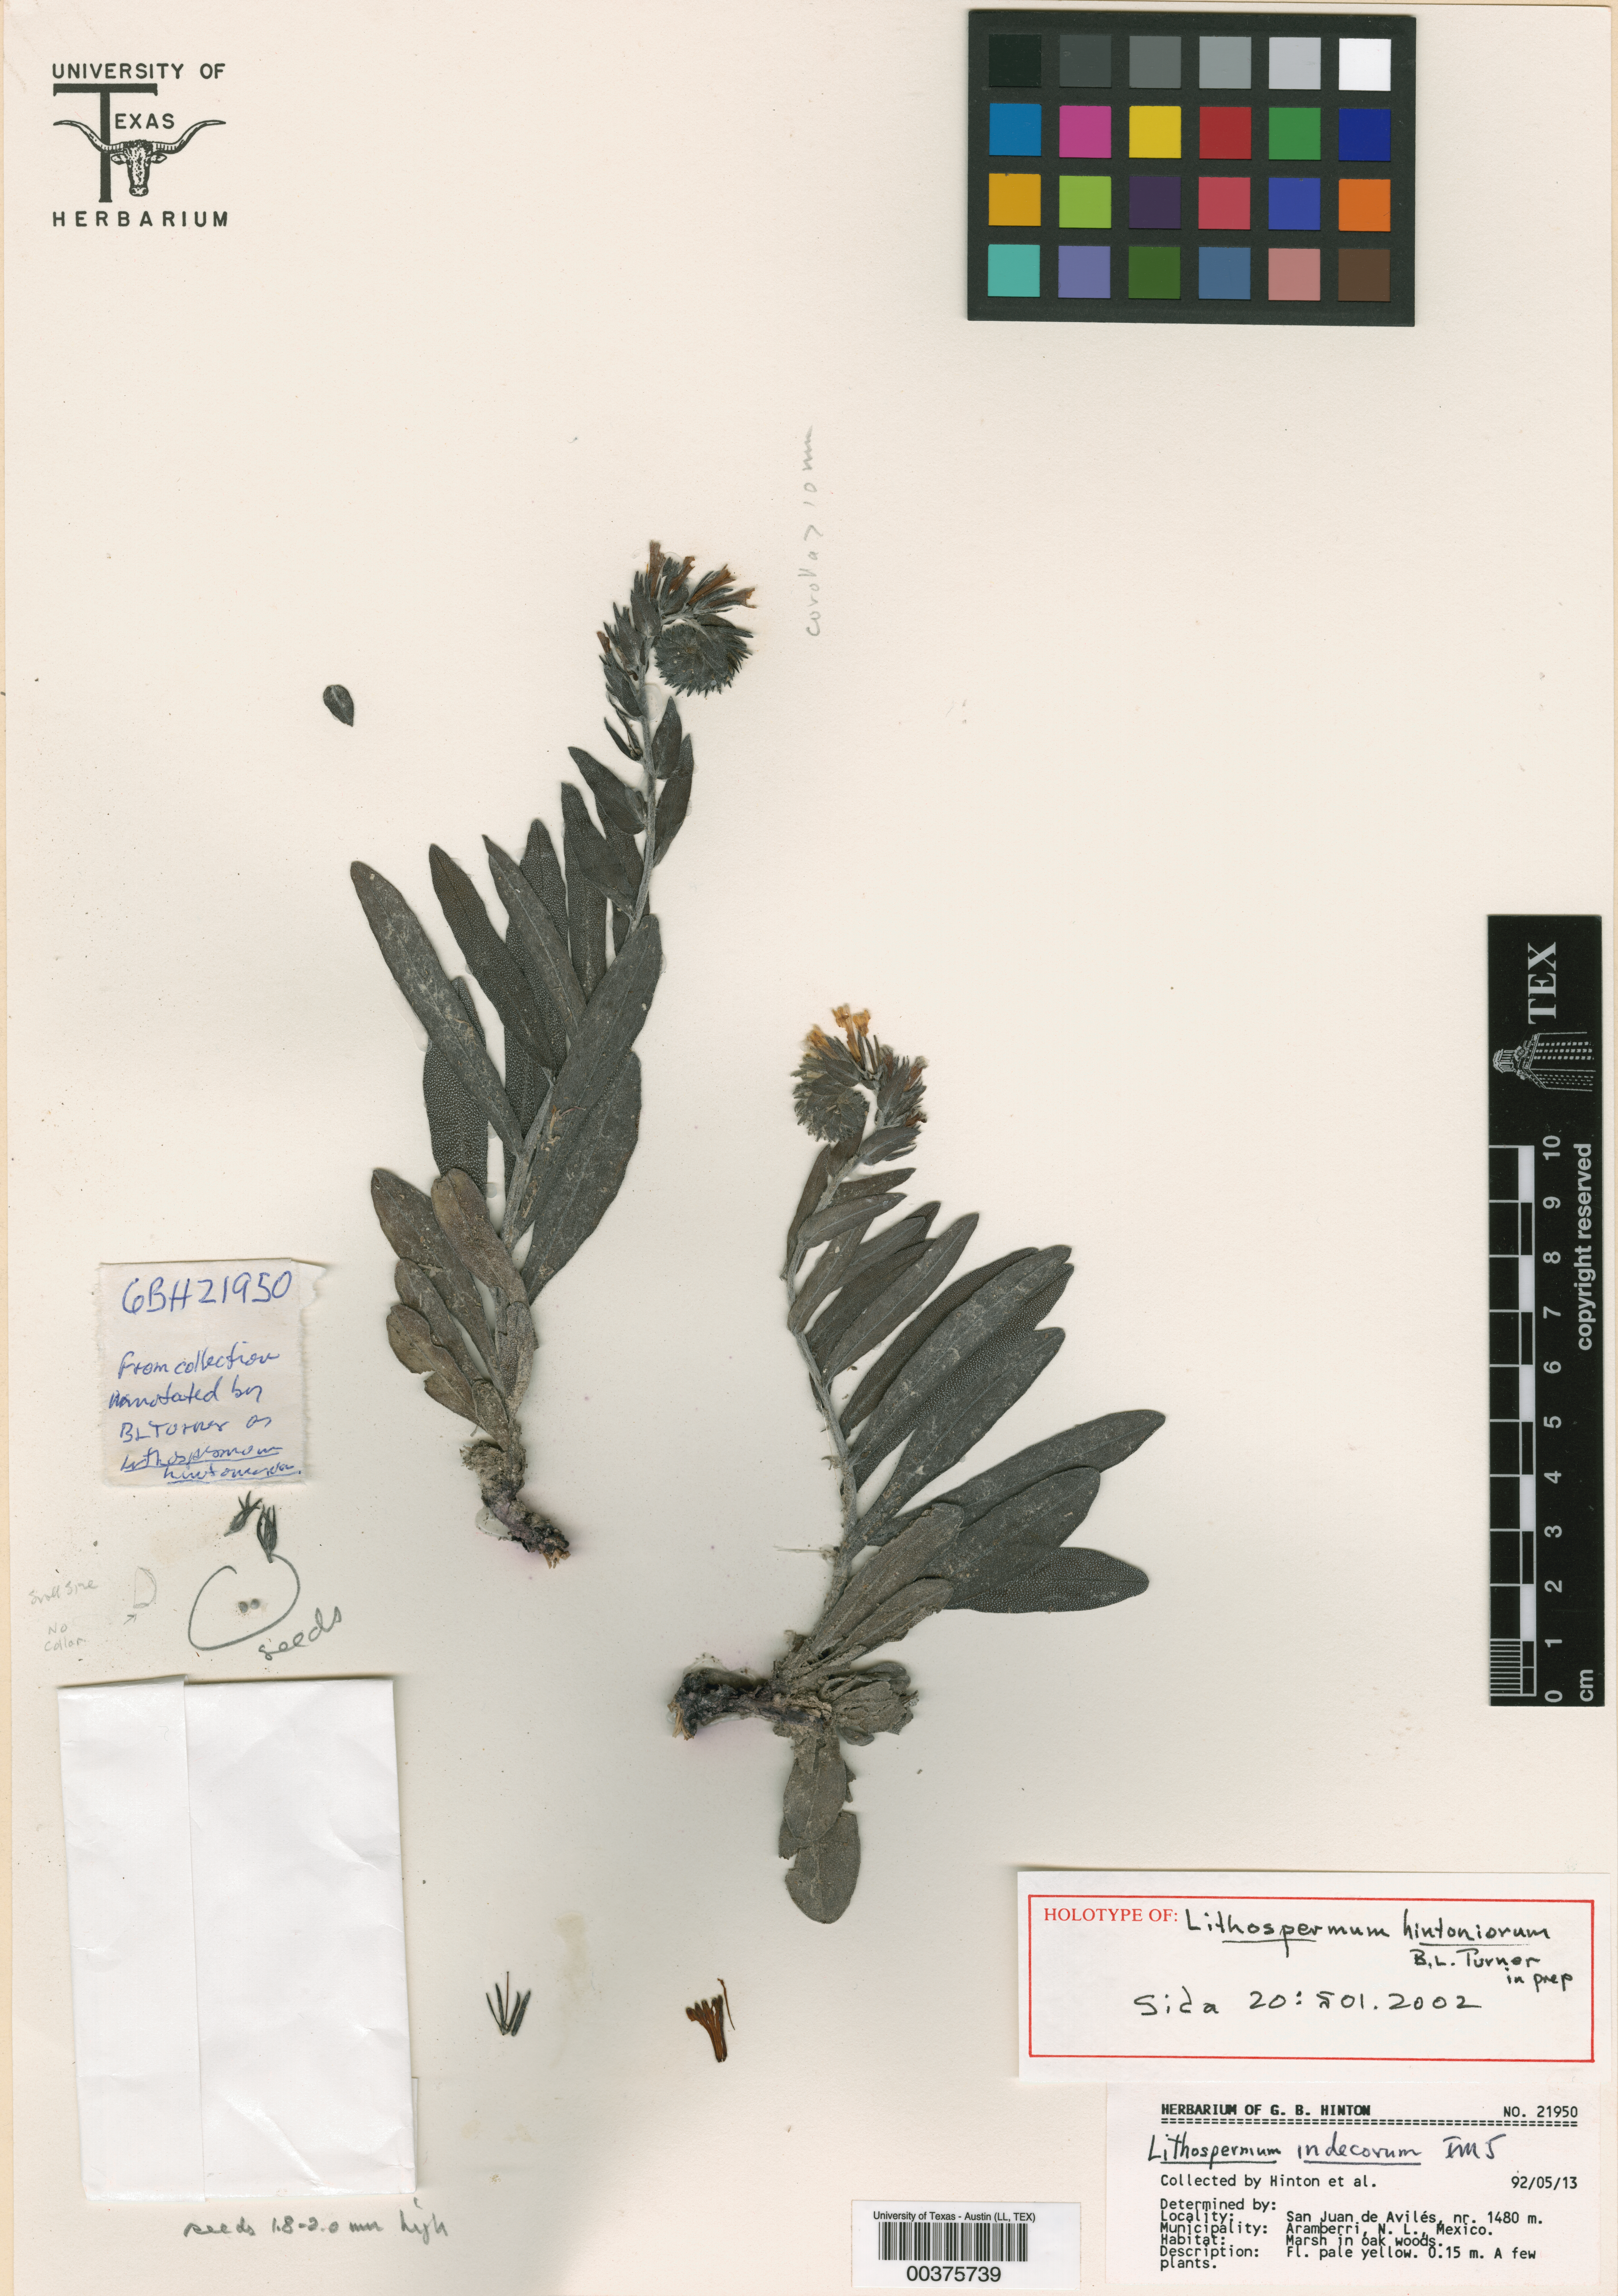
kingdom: Plantae
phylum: Tracheophyta
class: Magnoliopsida
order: Boraginales
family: Boraginaceae
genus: Lithospermum
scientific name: Lithospermum hintoniorum
